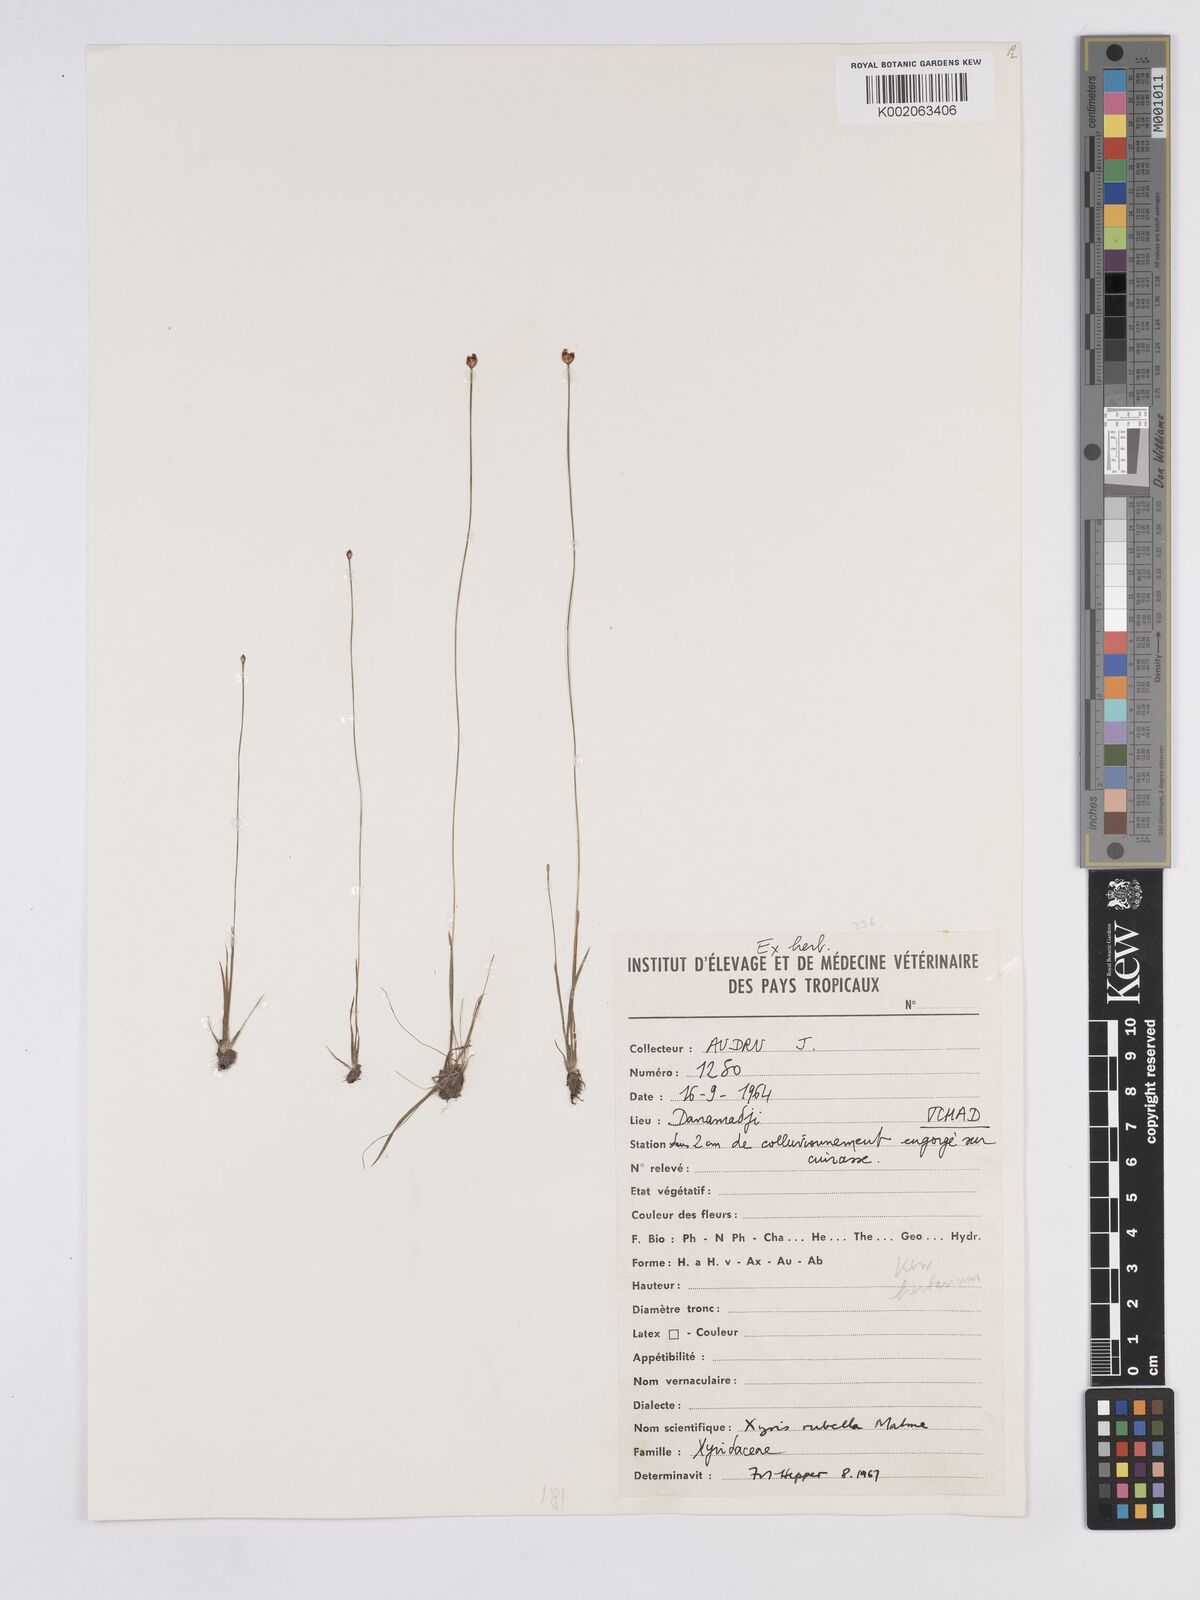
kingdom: Plantae
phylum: Tracheophyta
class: Liliopsida
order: Poales
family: Xyridaceae
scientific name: Xyridaceae
